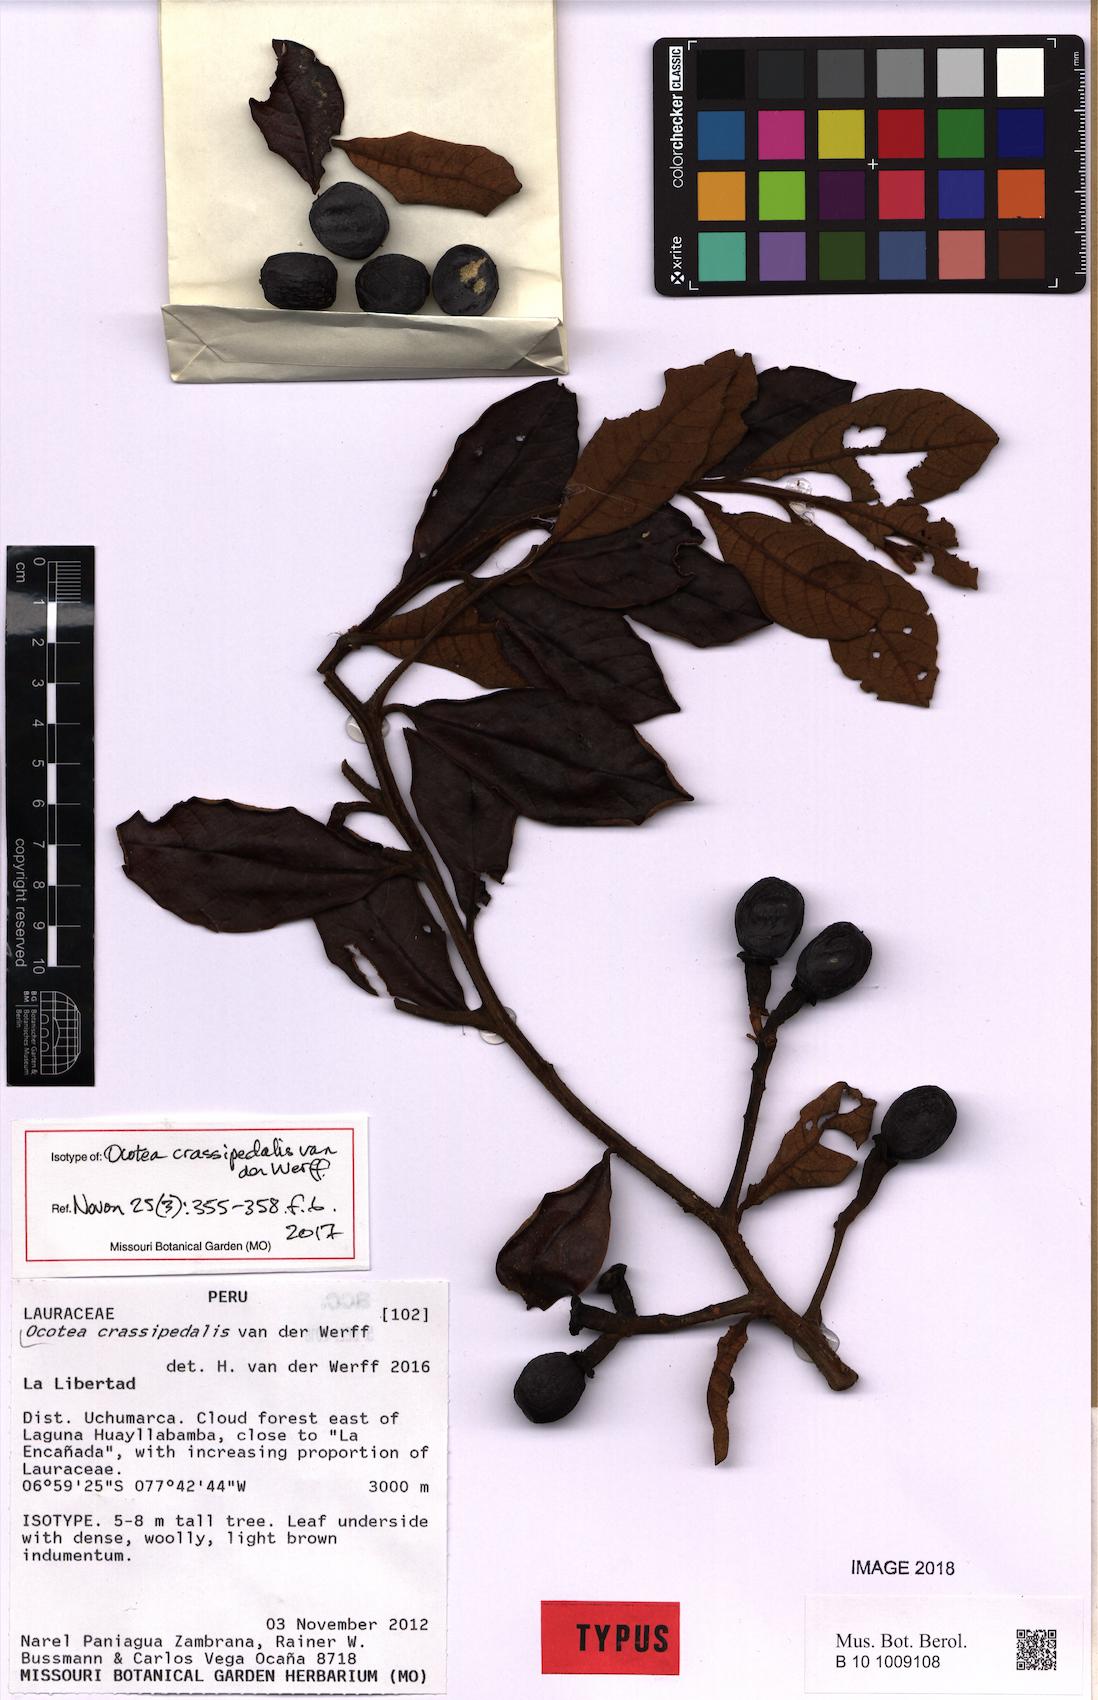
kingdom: Plantae
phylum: Tracheophyta
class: Magnoliopsida
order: Laurales
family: Lauraceae
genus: Ocotea
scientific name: Ocotea crassipedalis
